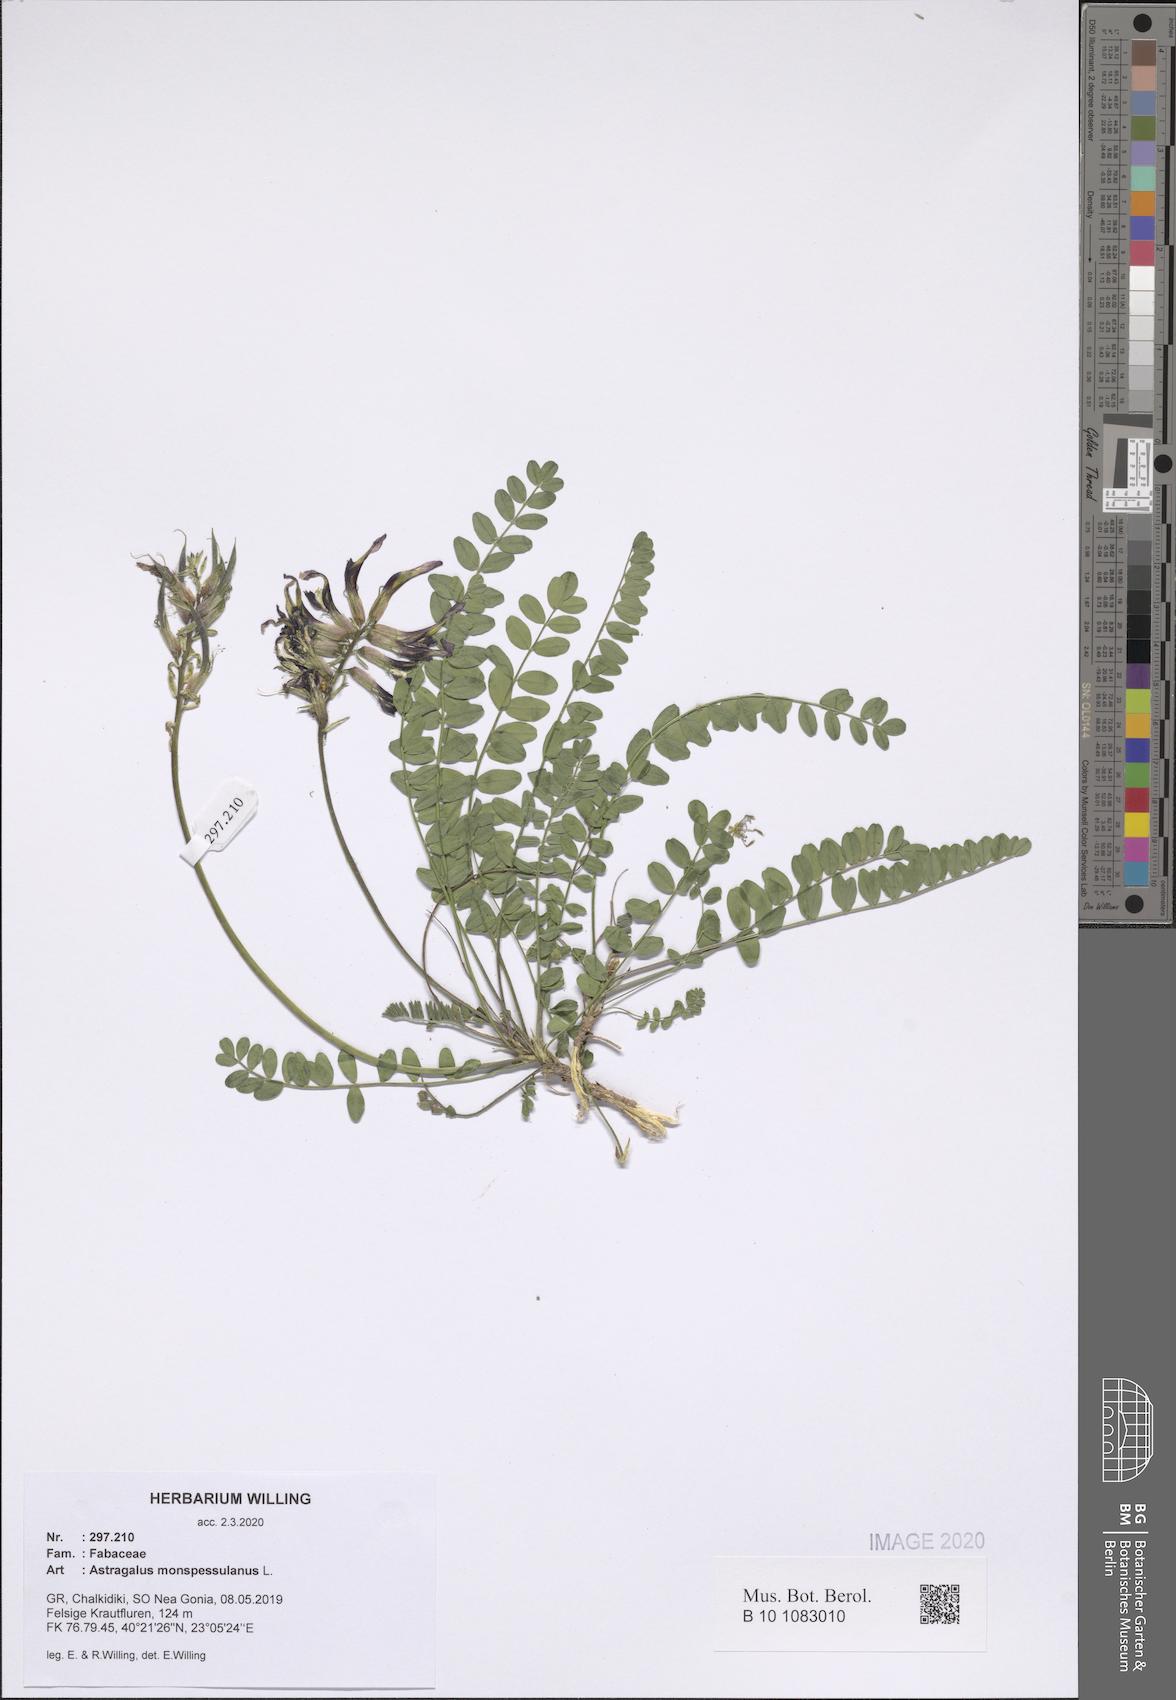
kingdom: Plantae
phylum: Tracheophyta
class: Magnoliopsida
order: Fabales
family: Fabaceae
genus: Astragalus
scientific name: Astragalus monspessulanus
